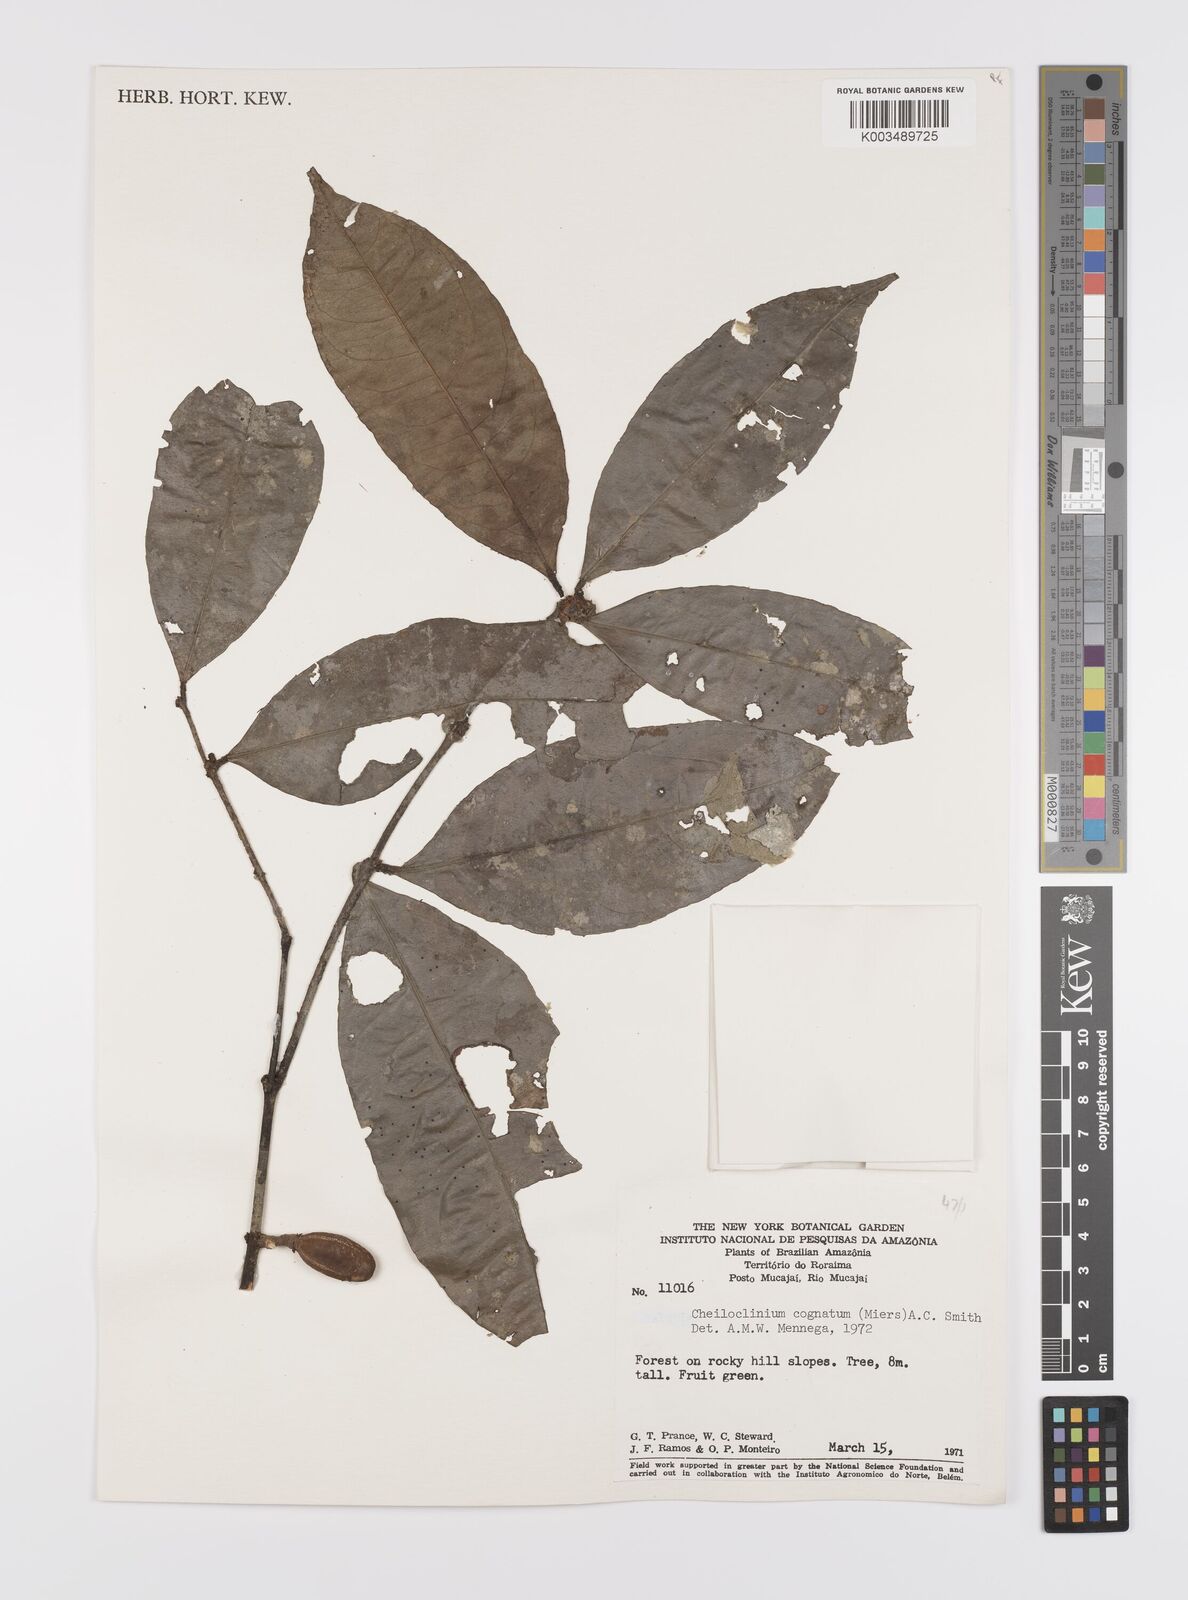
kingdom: Plantae
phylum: Tracheophyta
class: Magnoliopsida
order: Celastrales
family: Celastraceae
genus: Cheiloclinium
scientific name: Cheiloclinium cognatum
